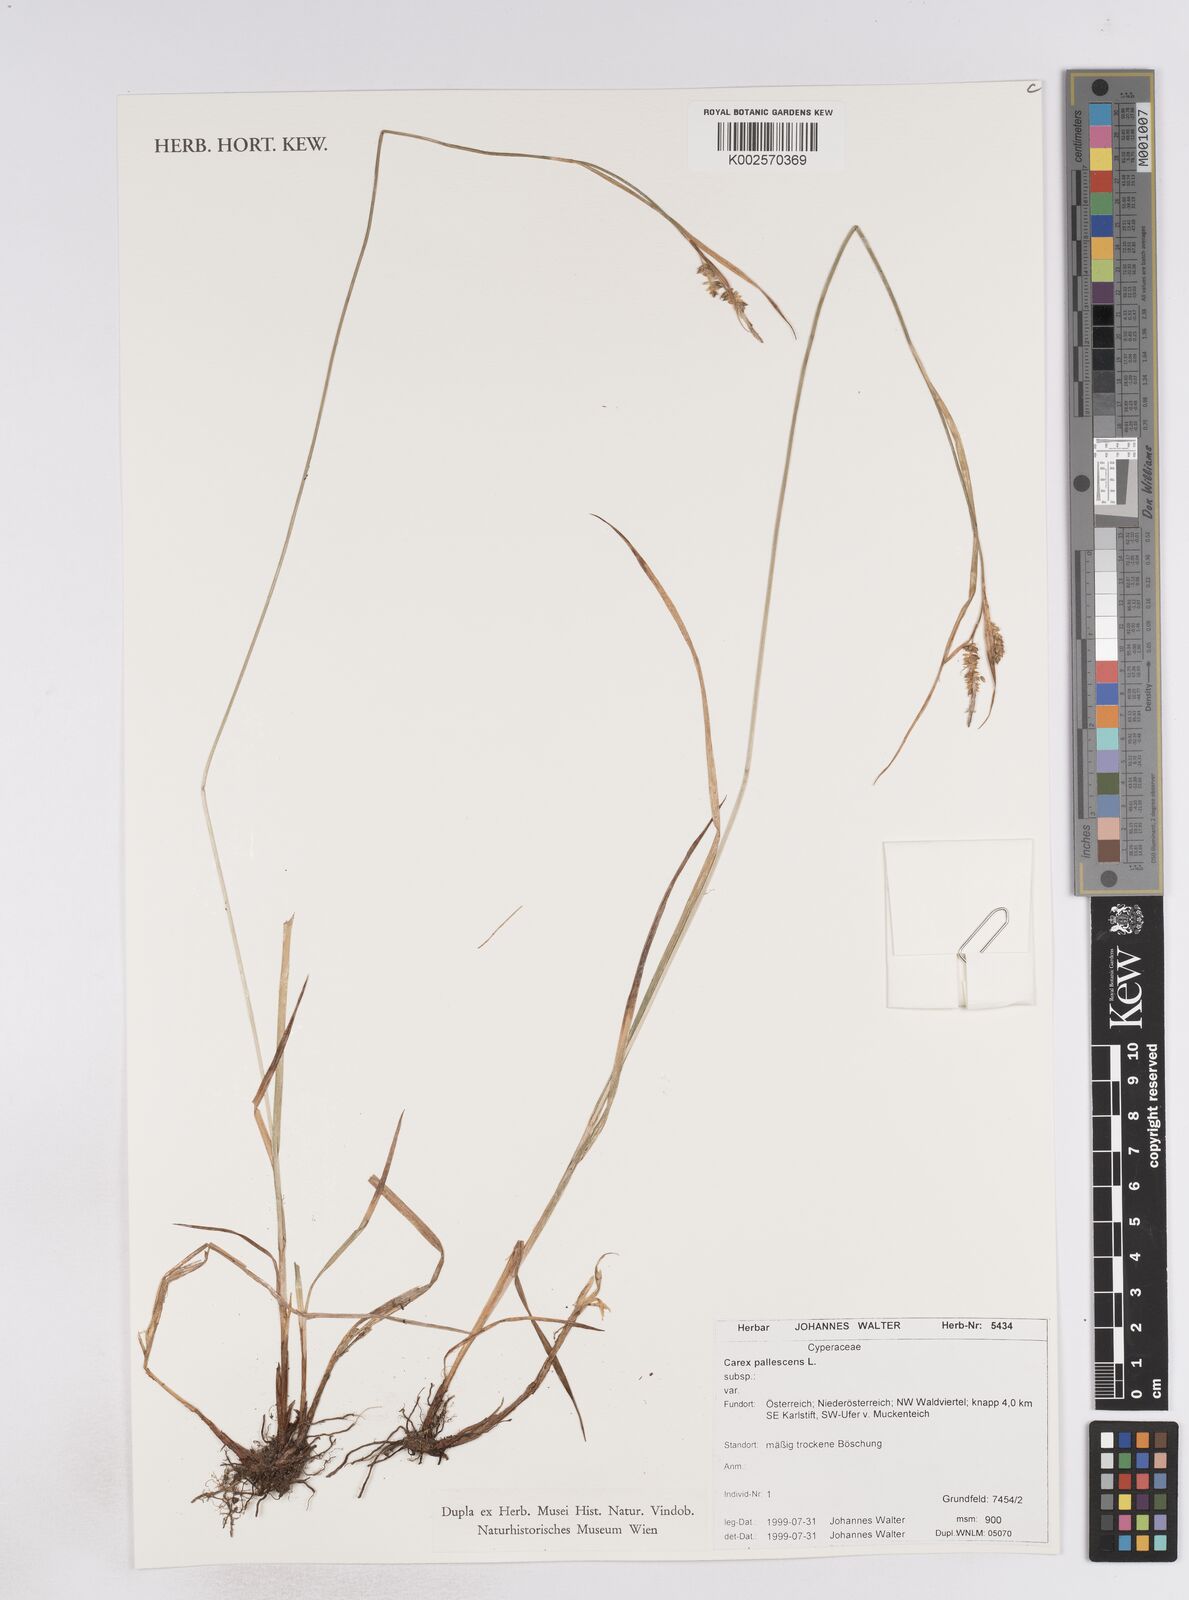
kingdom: Plantae
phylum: Tracheophyta
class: Liliopsida
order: Poales
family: Cyperaceae
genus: Carex
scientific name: Carex pallescens
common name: Pale sedge
